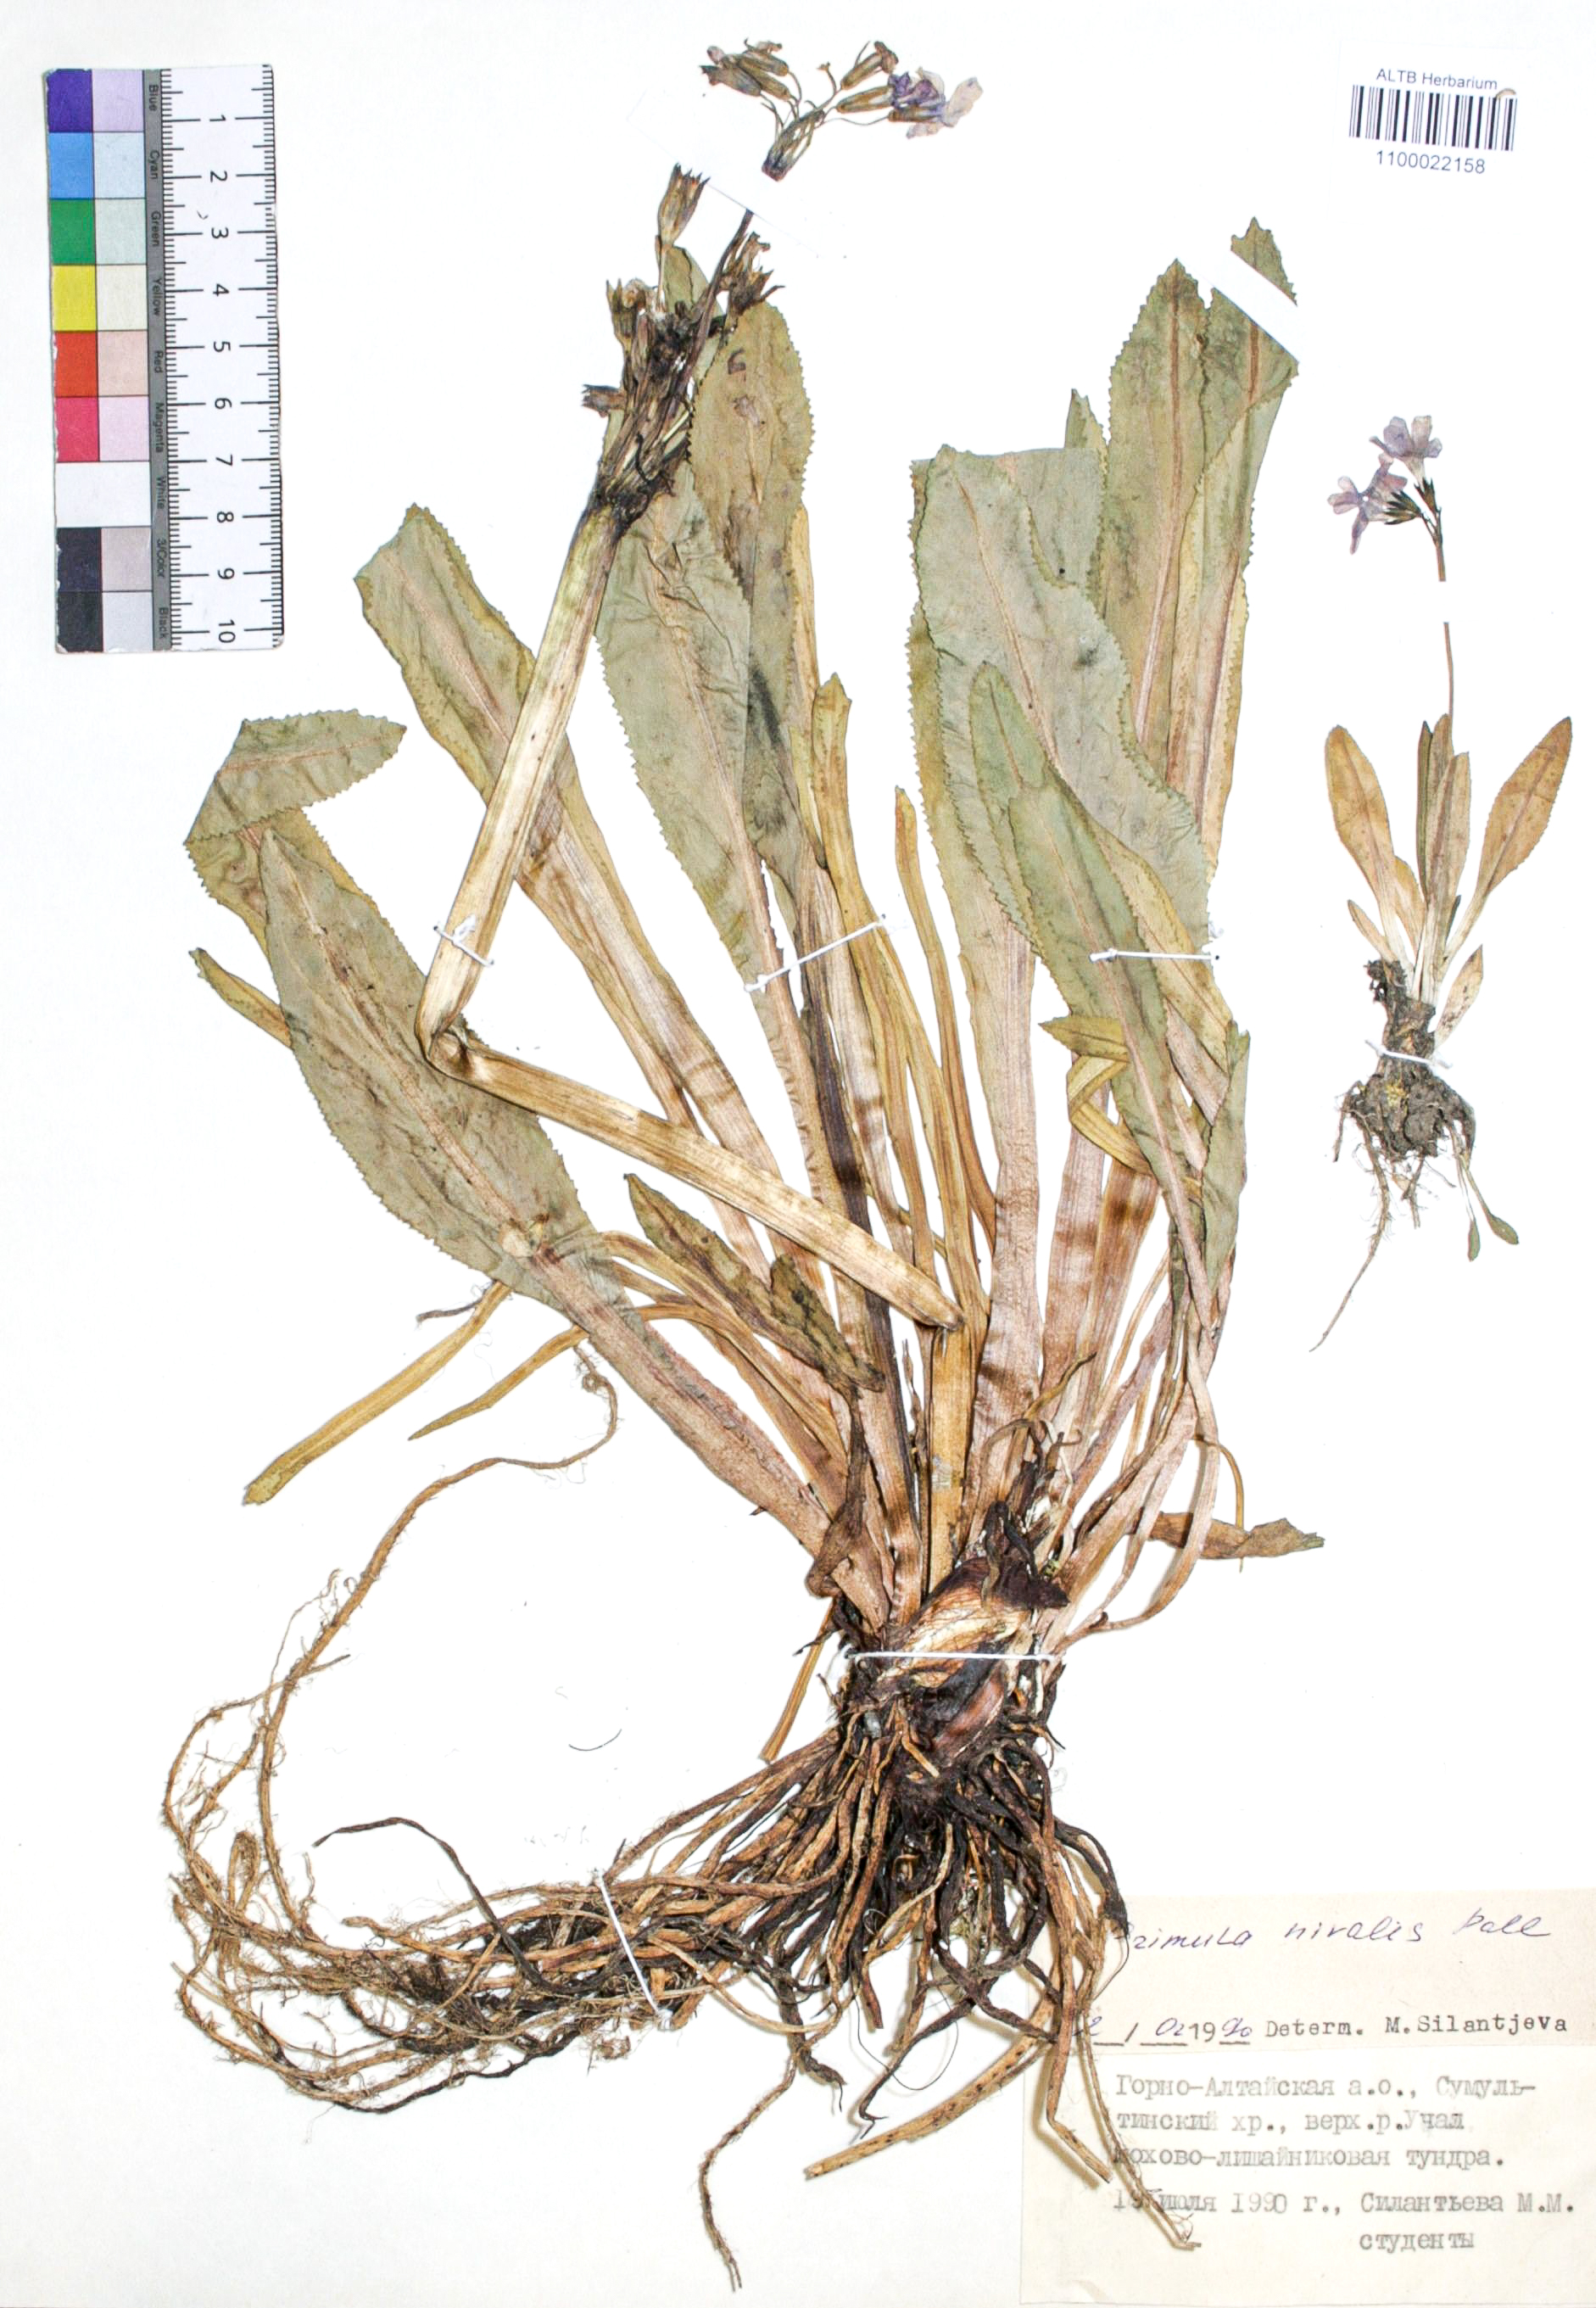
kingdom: Plantae
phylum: Tracheophyta
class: Magnoliopsida
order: Ericales
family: Primulaceae
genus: Primula
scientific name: Primula nivalis
